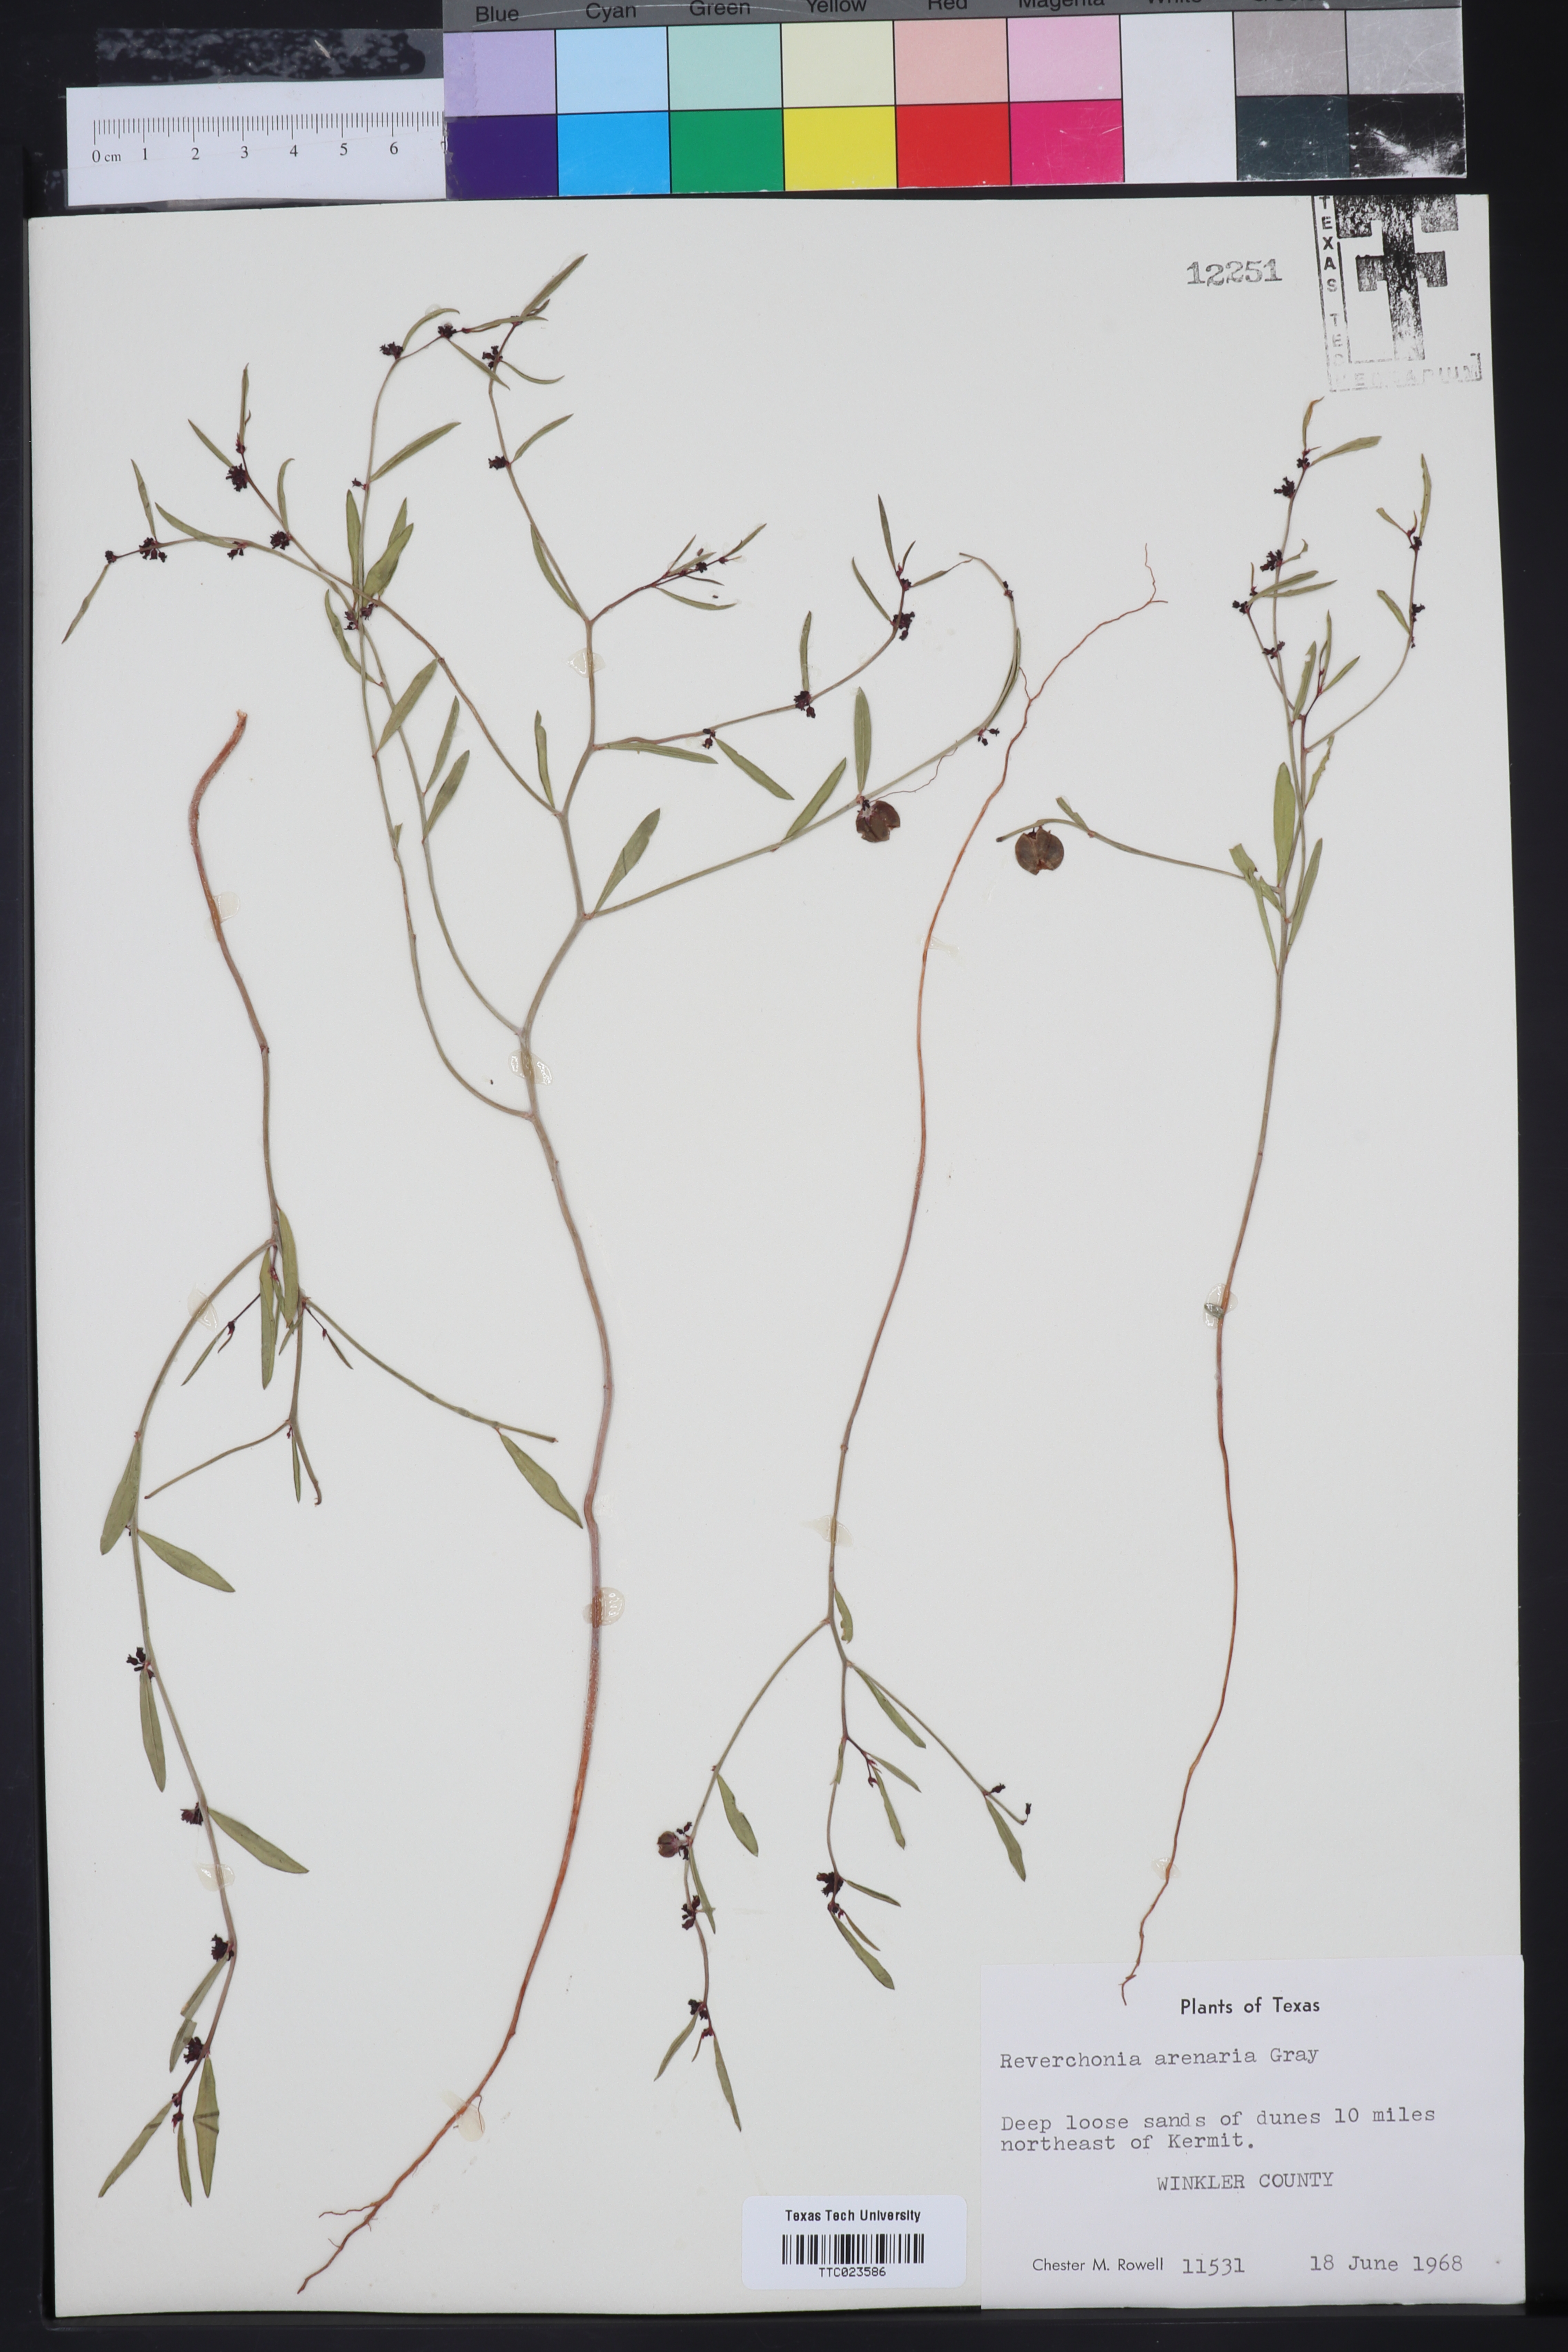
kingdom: Plantae
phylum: Tracheophyta
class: Magnoliopsida
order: Malpighiales
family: Phyllanthaceae
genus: Phyllanthus
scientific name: Phyllanthus warnockii
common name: Sand reverchonia
